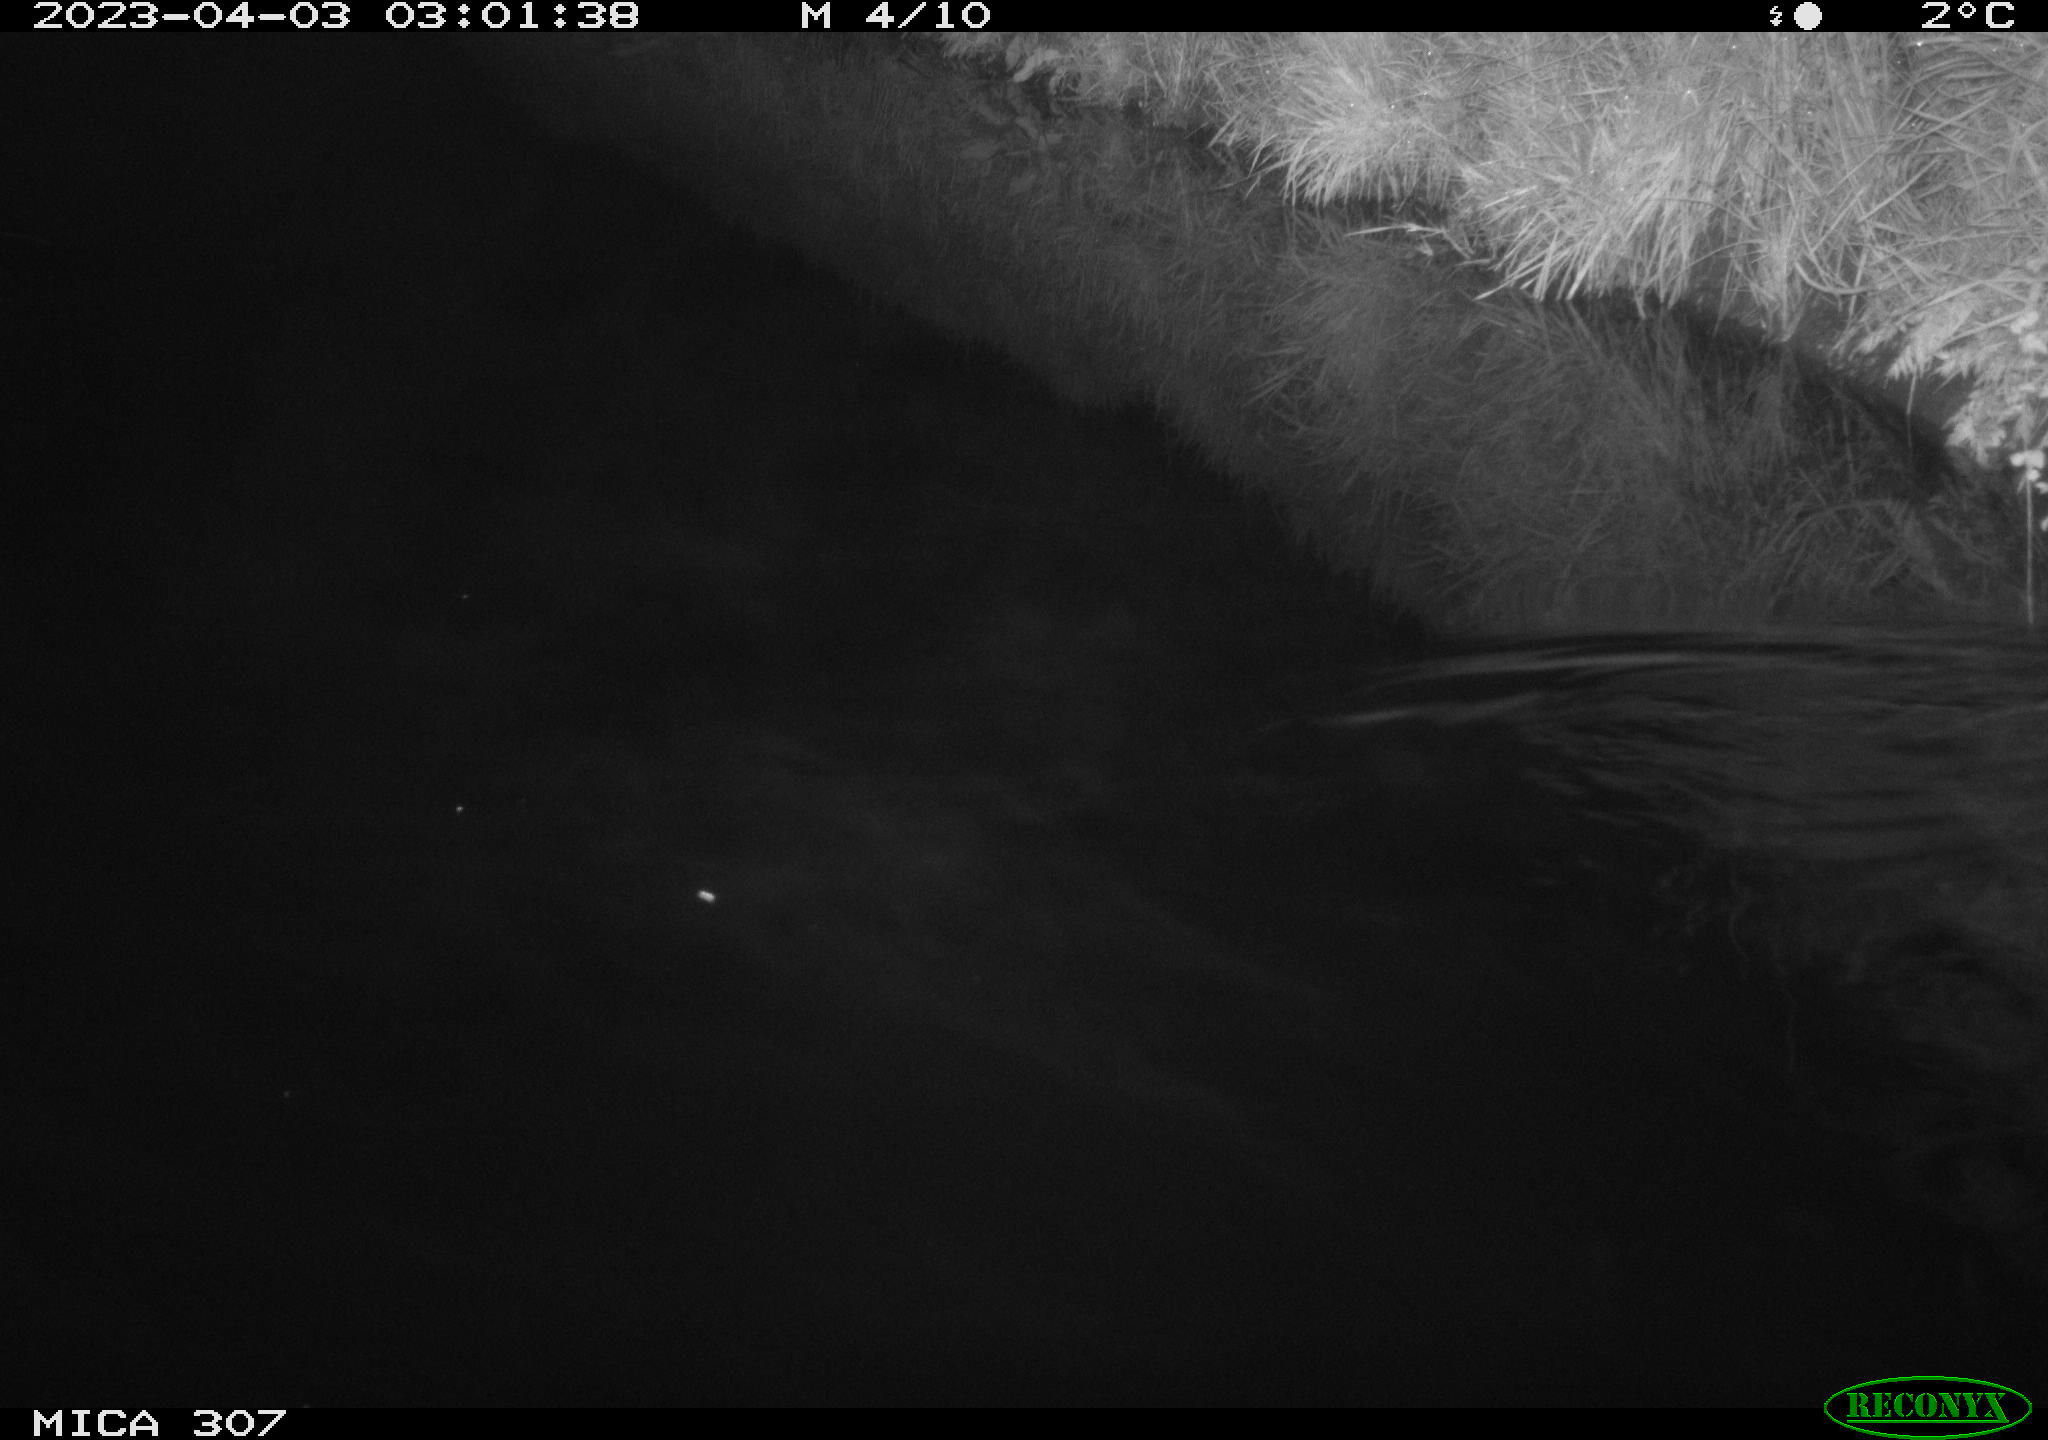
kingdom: Animalia
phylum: Chordata
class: Mammalia
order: Rodentia
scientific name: Rodentia
